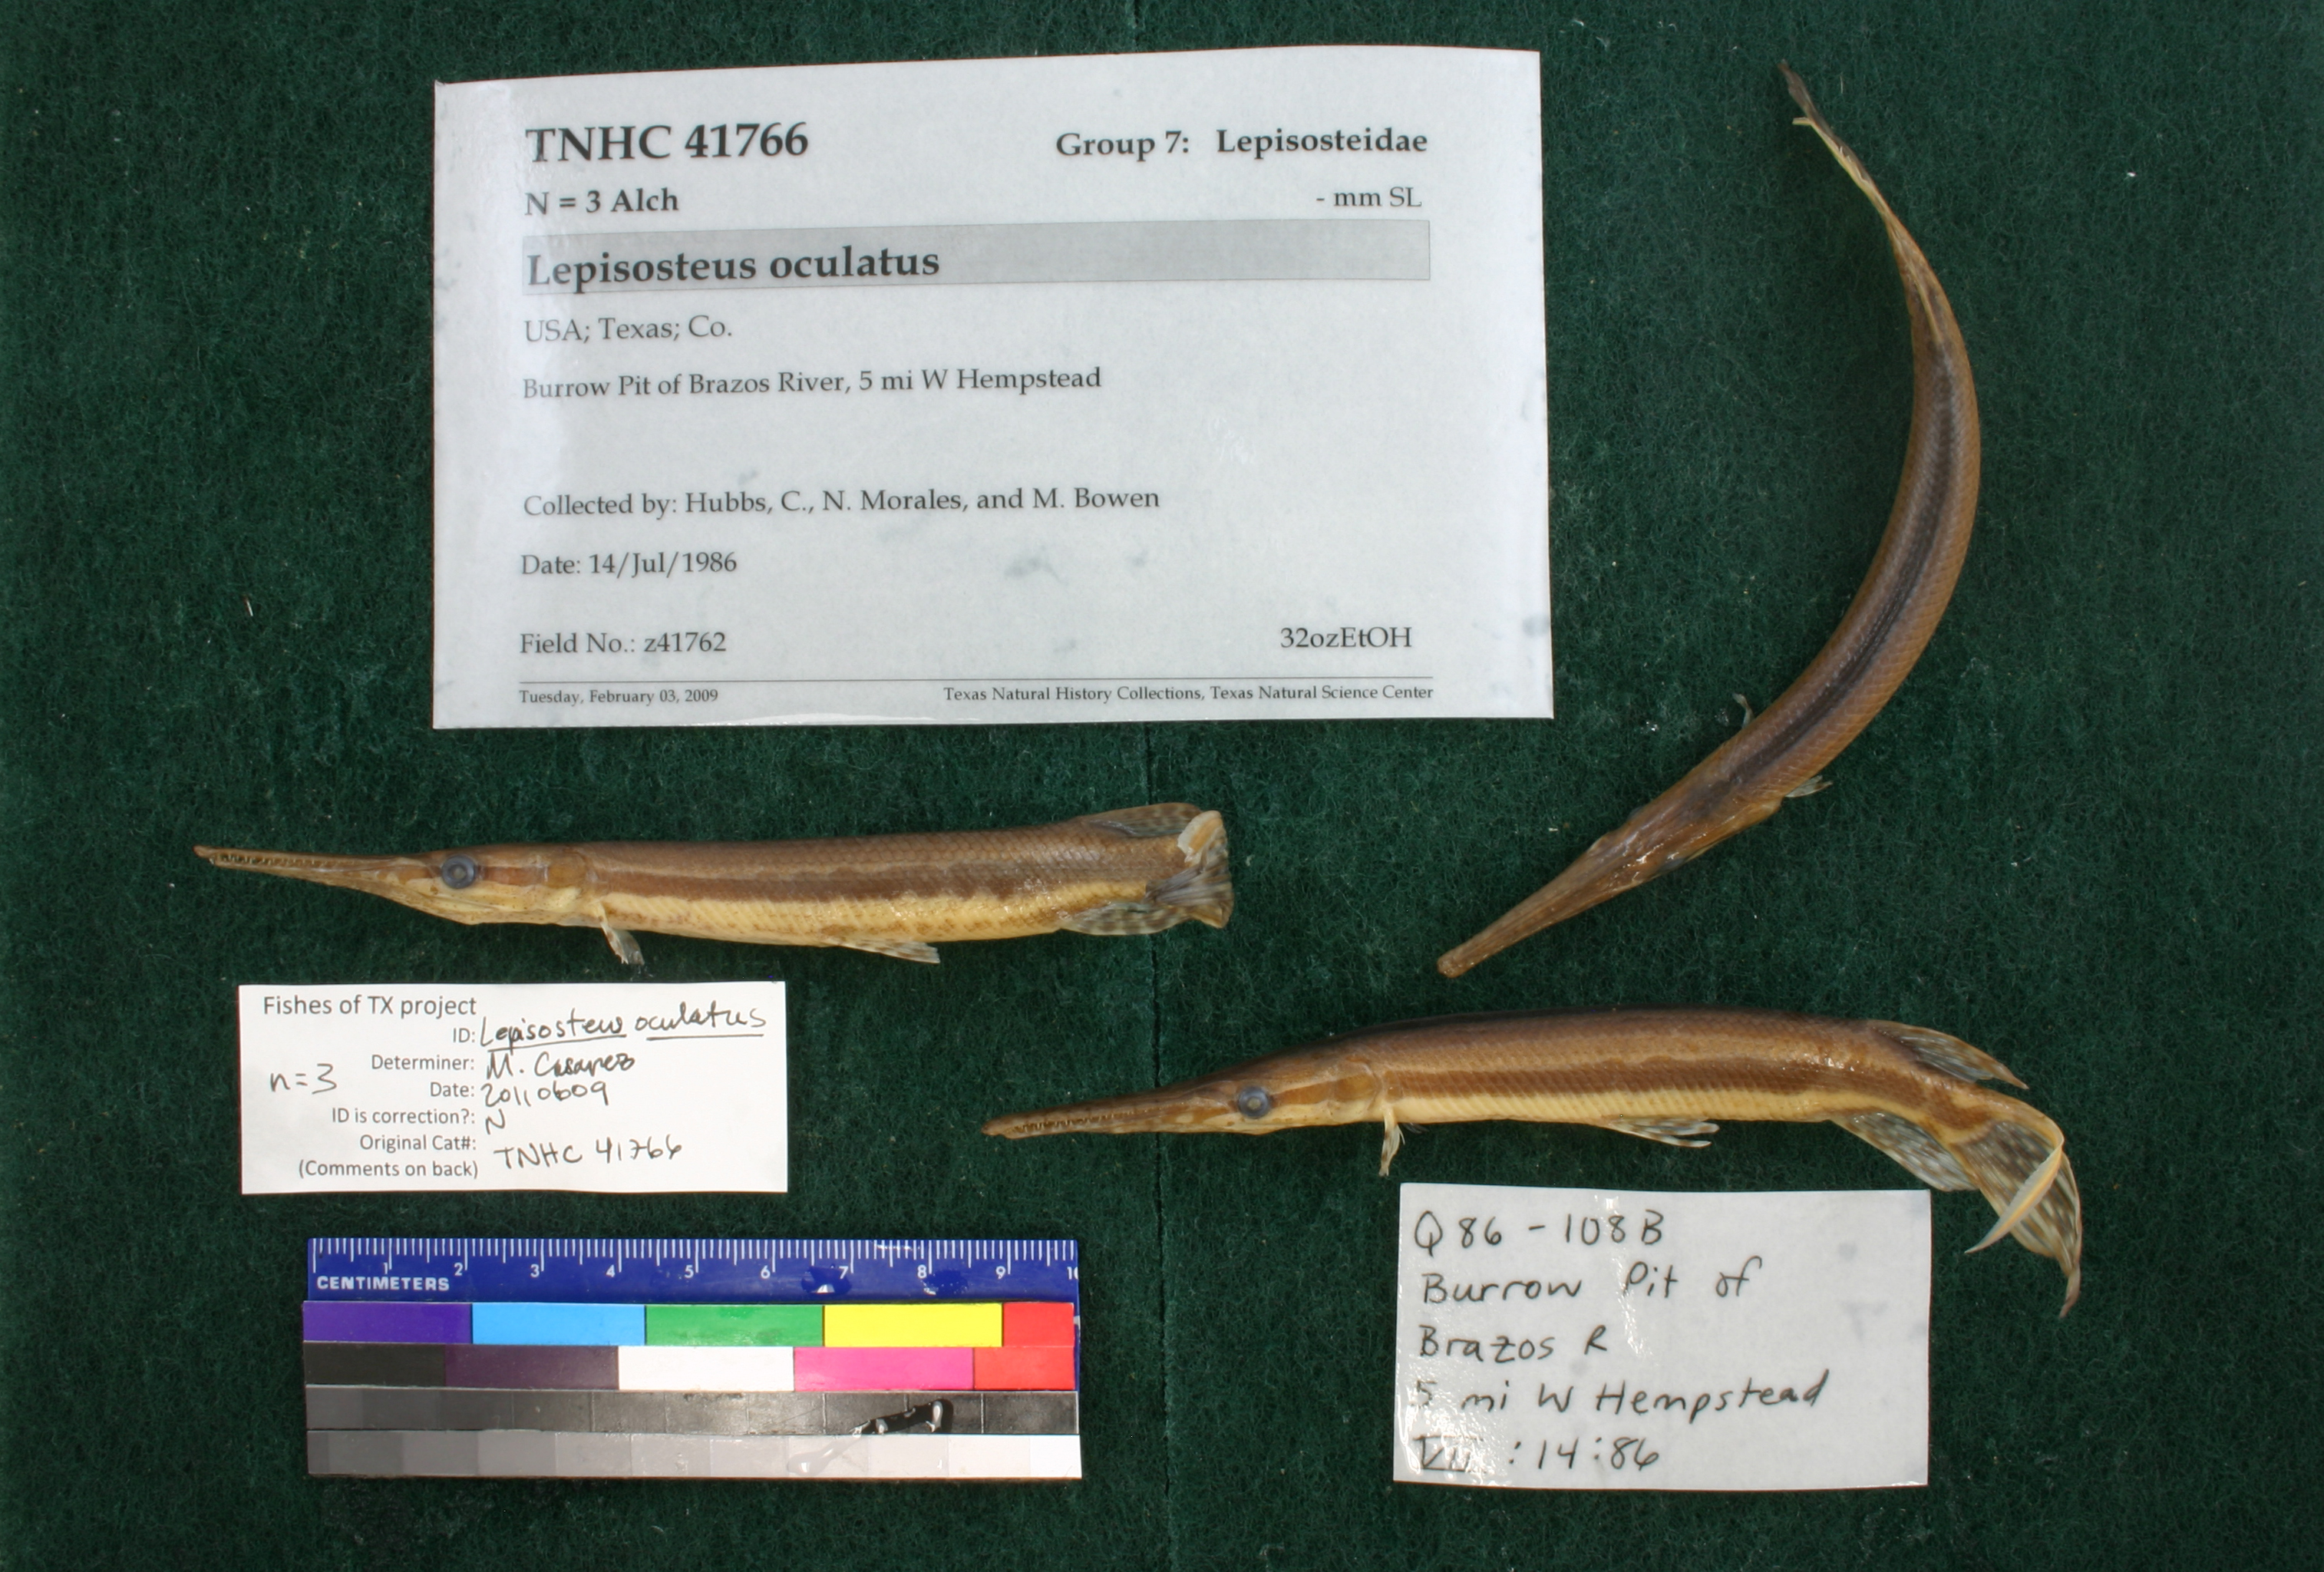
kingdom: Animalia
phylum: Chordata
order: Lepisosteiformes
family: Lepisosteidae
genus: Lepisosteus
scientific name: Lepisosteus oculatus
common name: Spotted gar
